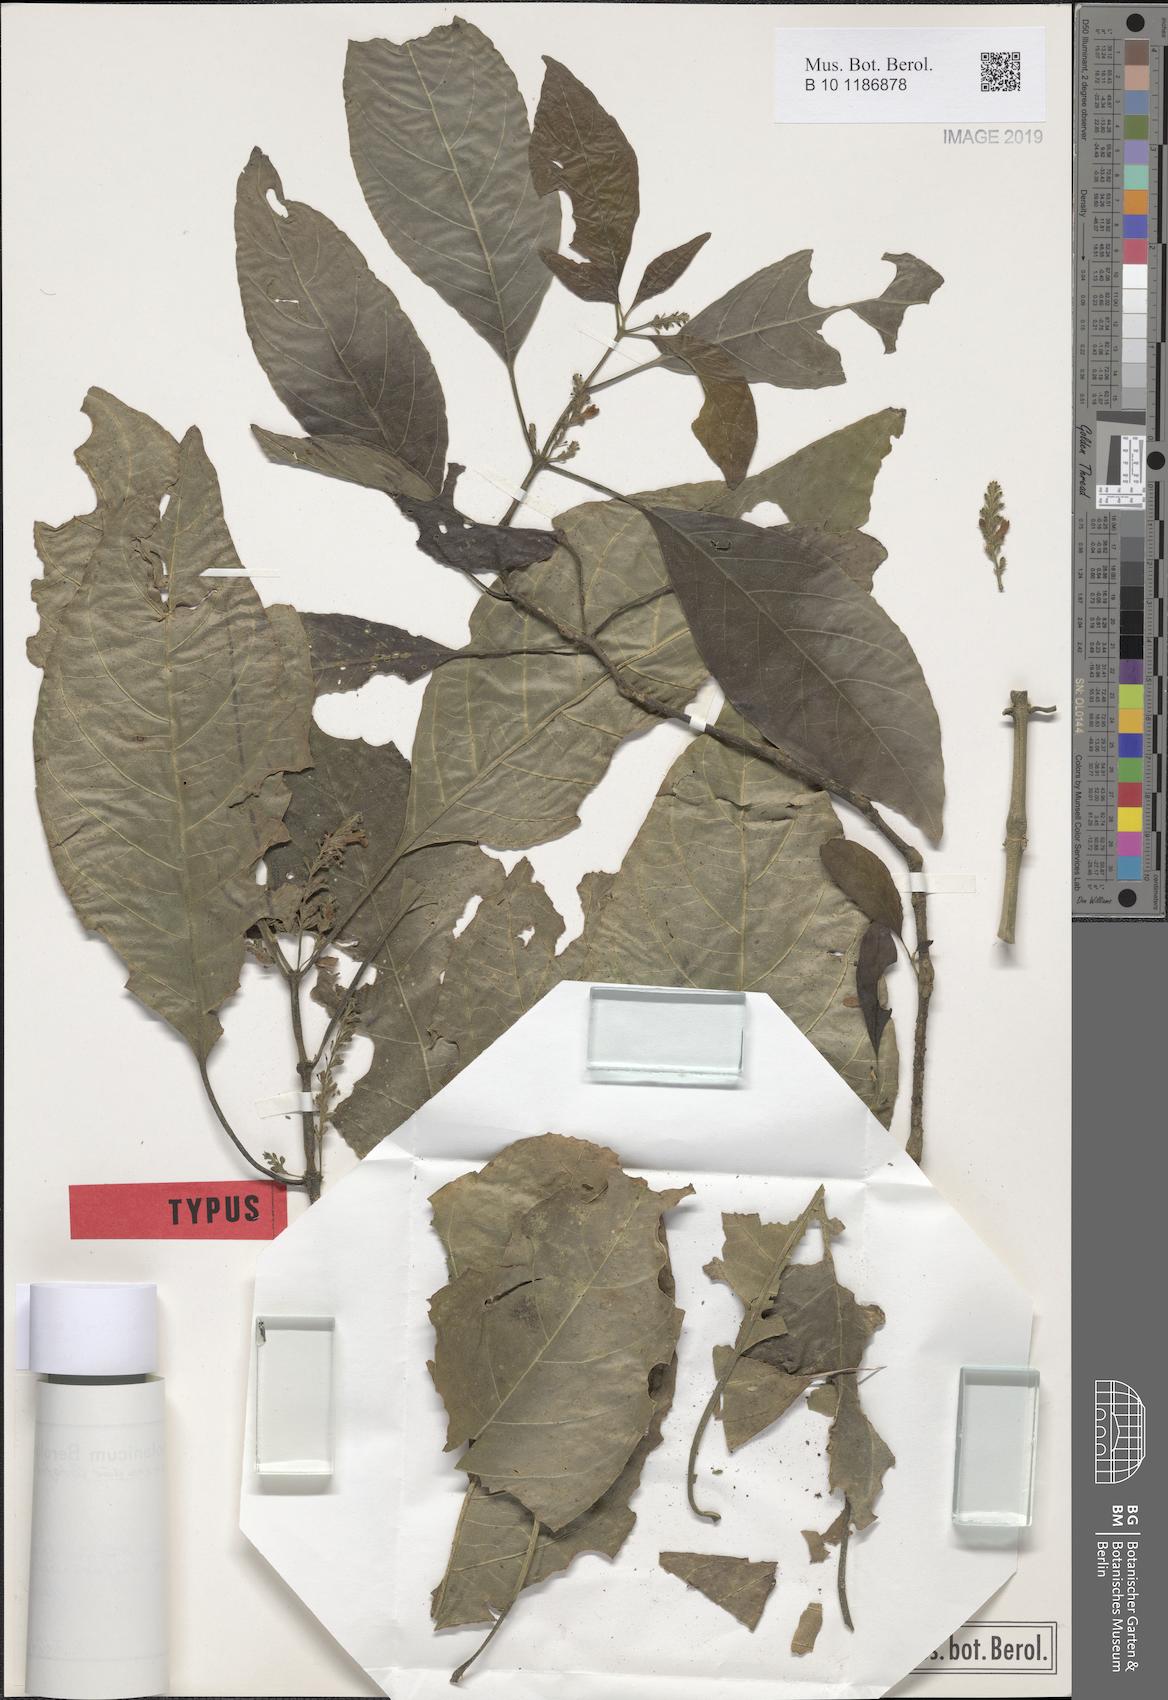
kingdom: Plantae
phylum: Tracheophyta
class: Magnoliopsida
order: Lamiales
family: Acanthaceae
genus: Justicia
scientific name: Justicia mkungweensis
